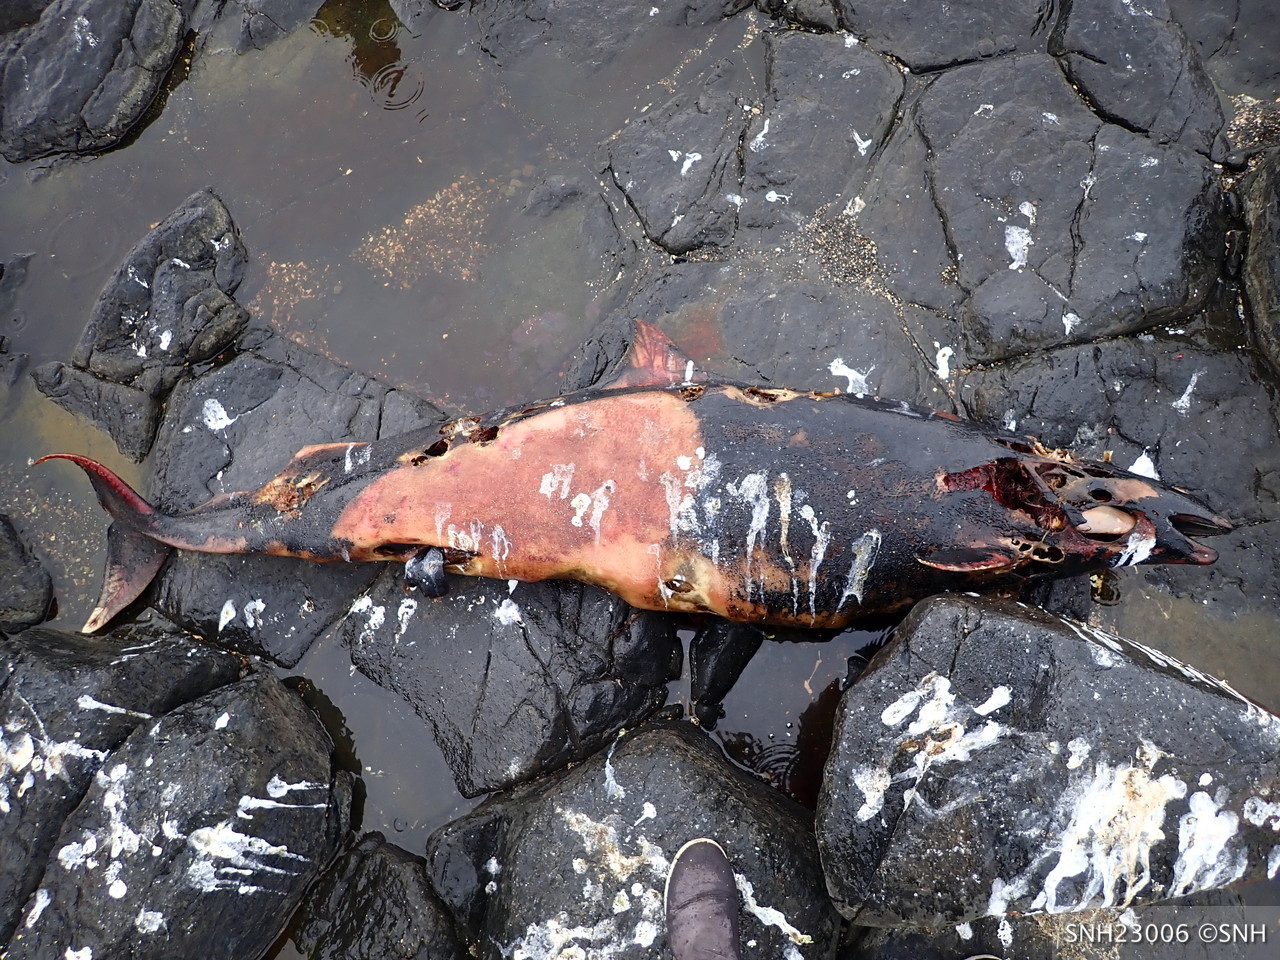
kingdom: Animalia
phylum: Chordata
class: Mammalia
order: Cetacea
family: Phocoenidae
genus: Phocoenoides
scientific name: Phocoenoides dalli
